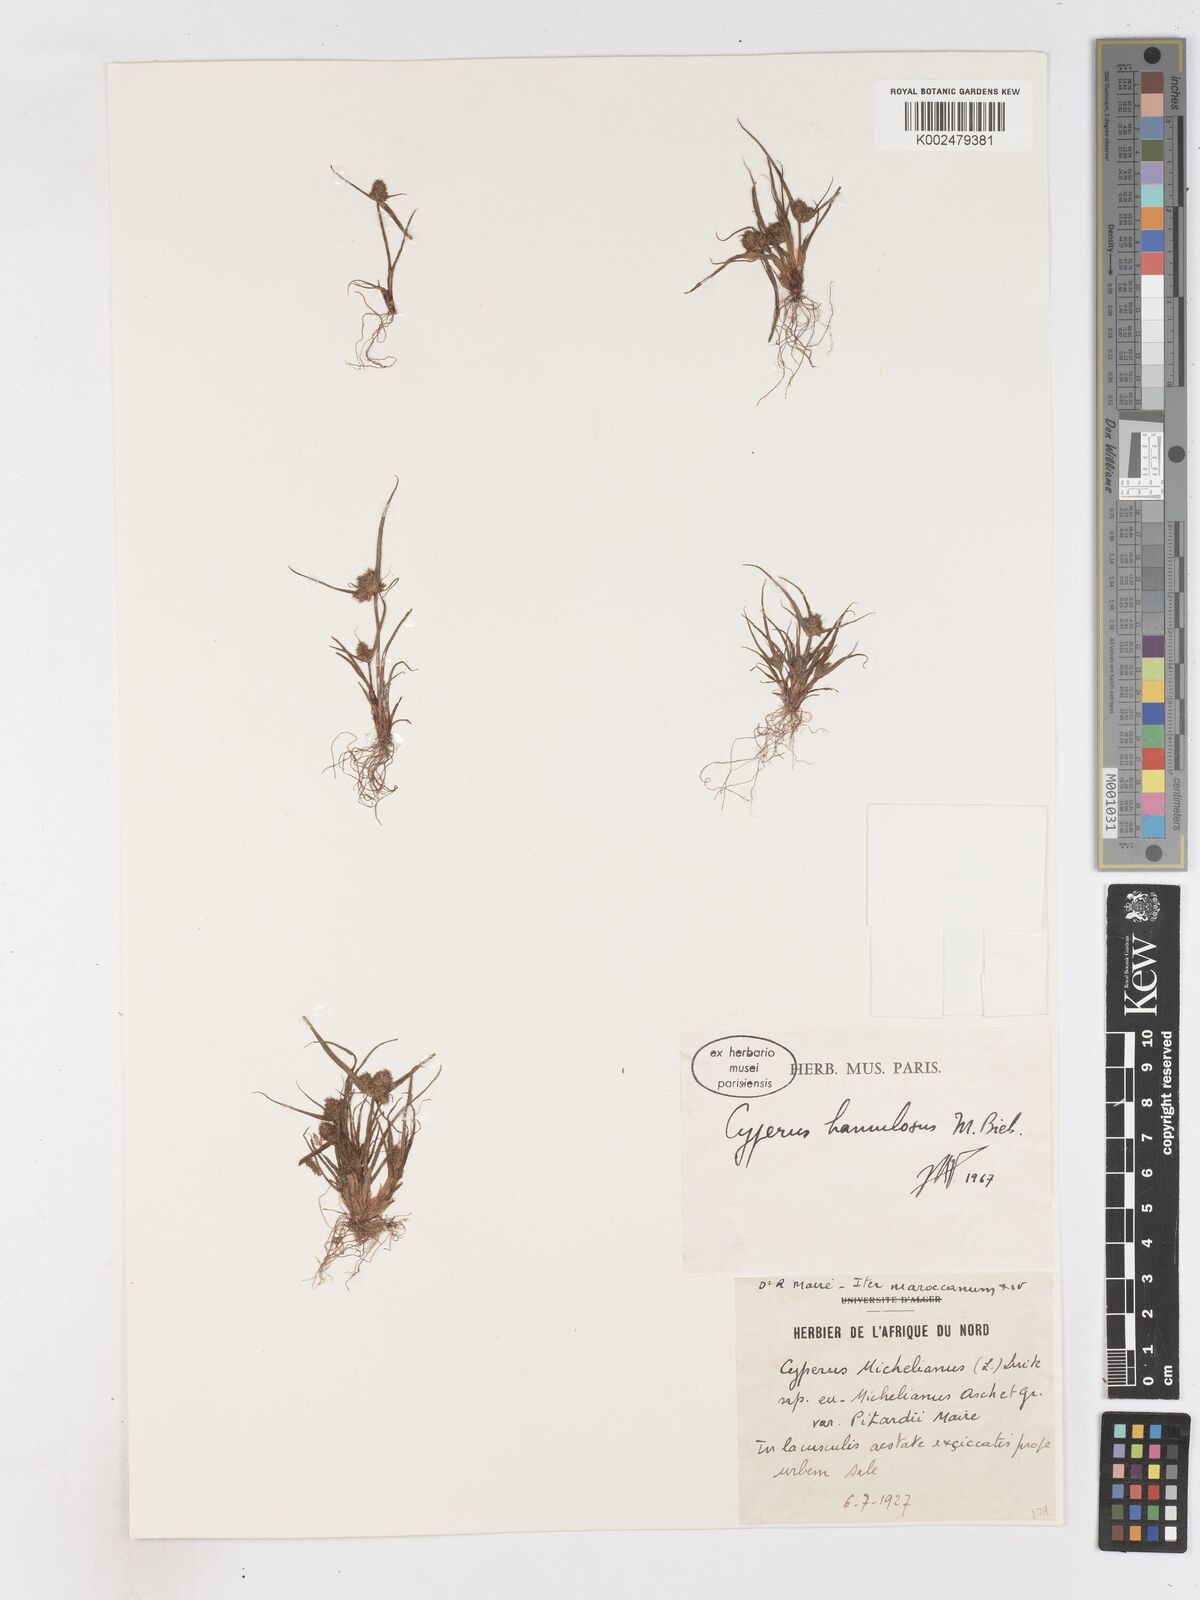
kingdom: Plantae
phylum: Tracheophyta
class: Liliopsida
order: Poales
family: Cyperaceae
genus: Cyperus
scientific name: Cyperus michelianus
